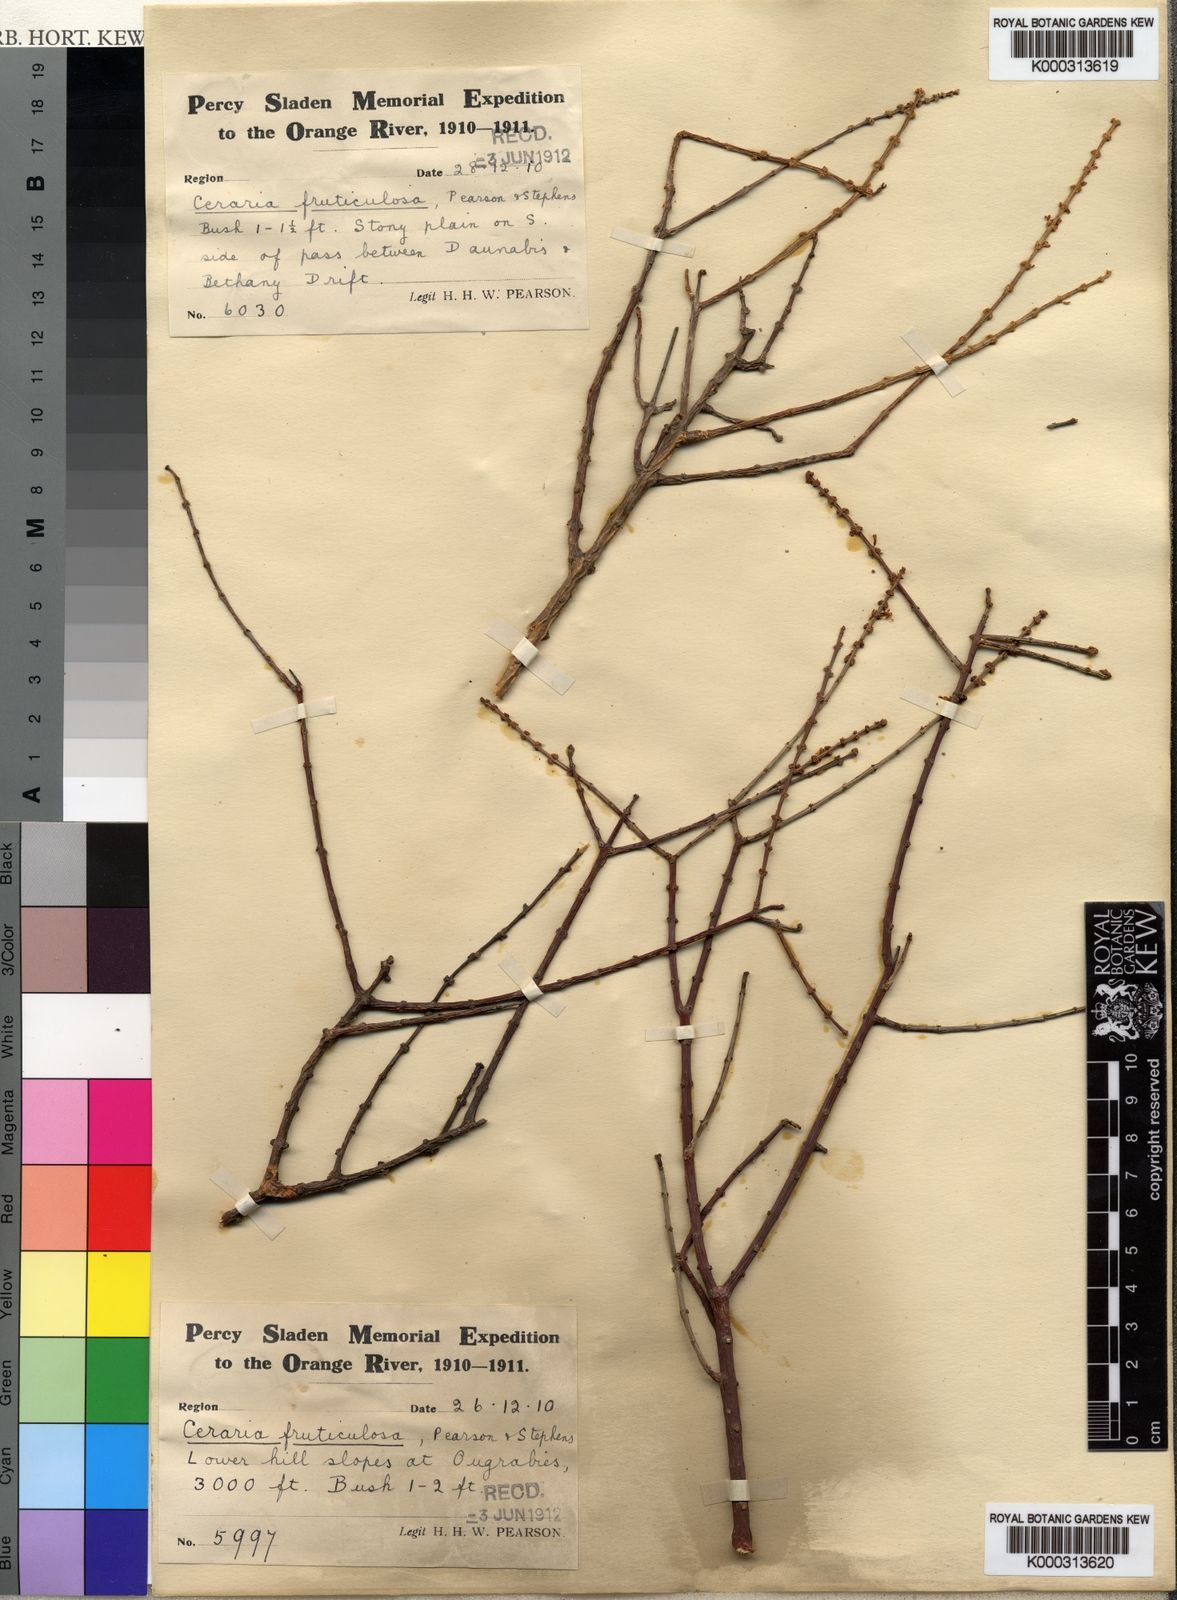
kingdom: Plantae
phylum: Tracheophyta
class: Magnoliopsida
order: Caryophyllales
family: Didiereaceae
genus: Portulacaria
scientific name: Portulacaria fruticulosa
